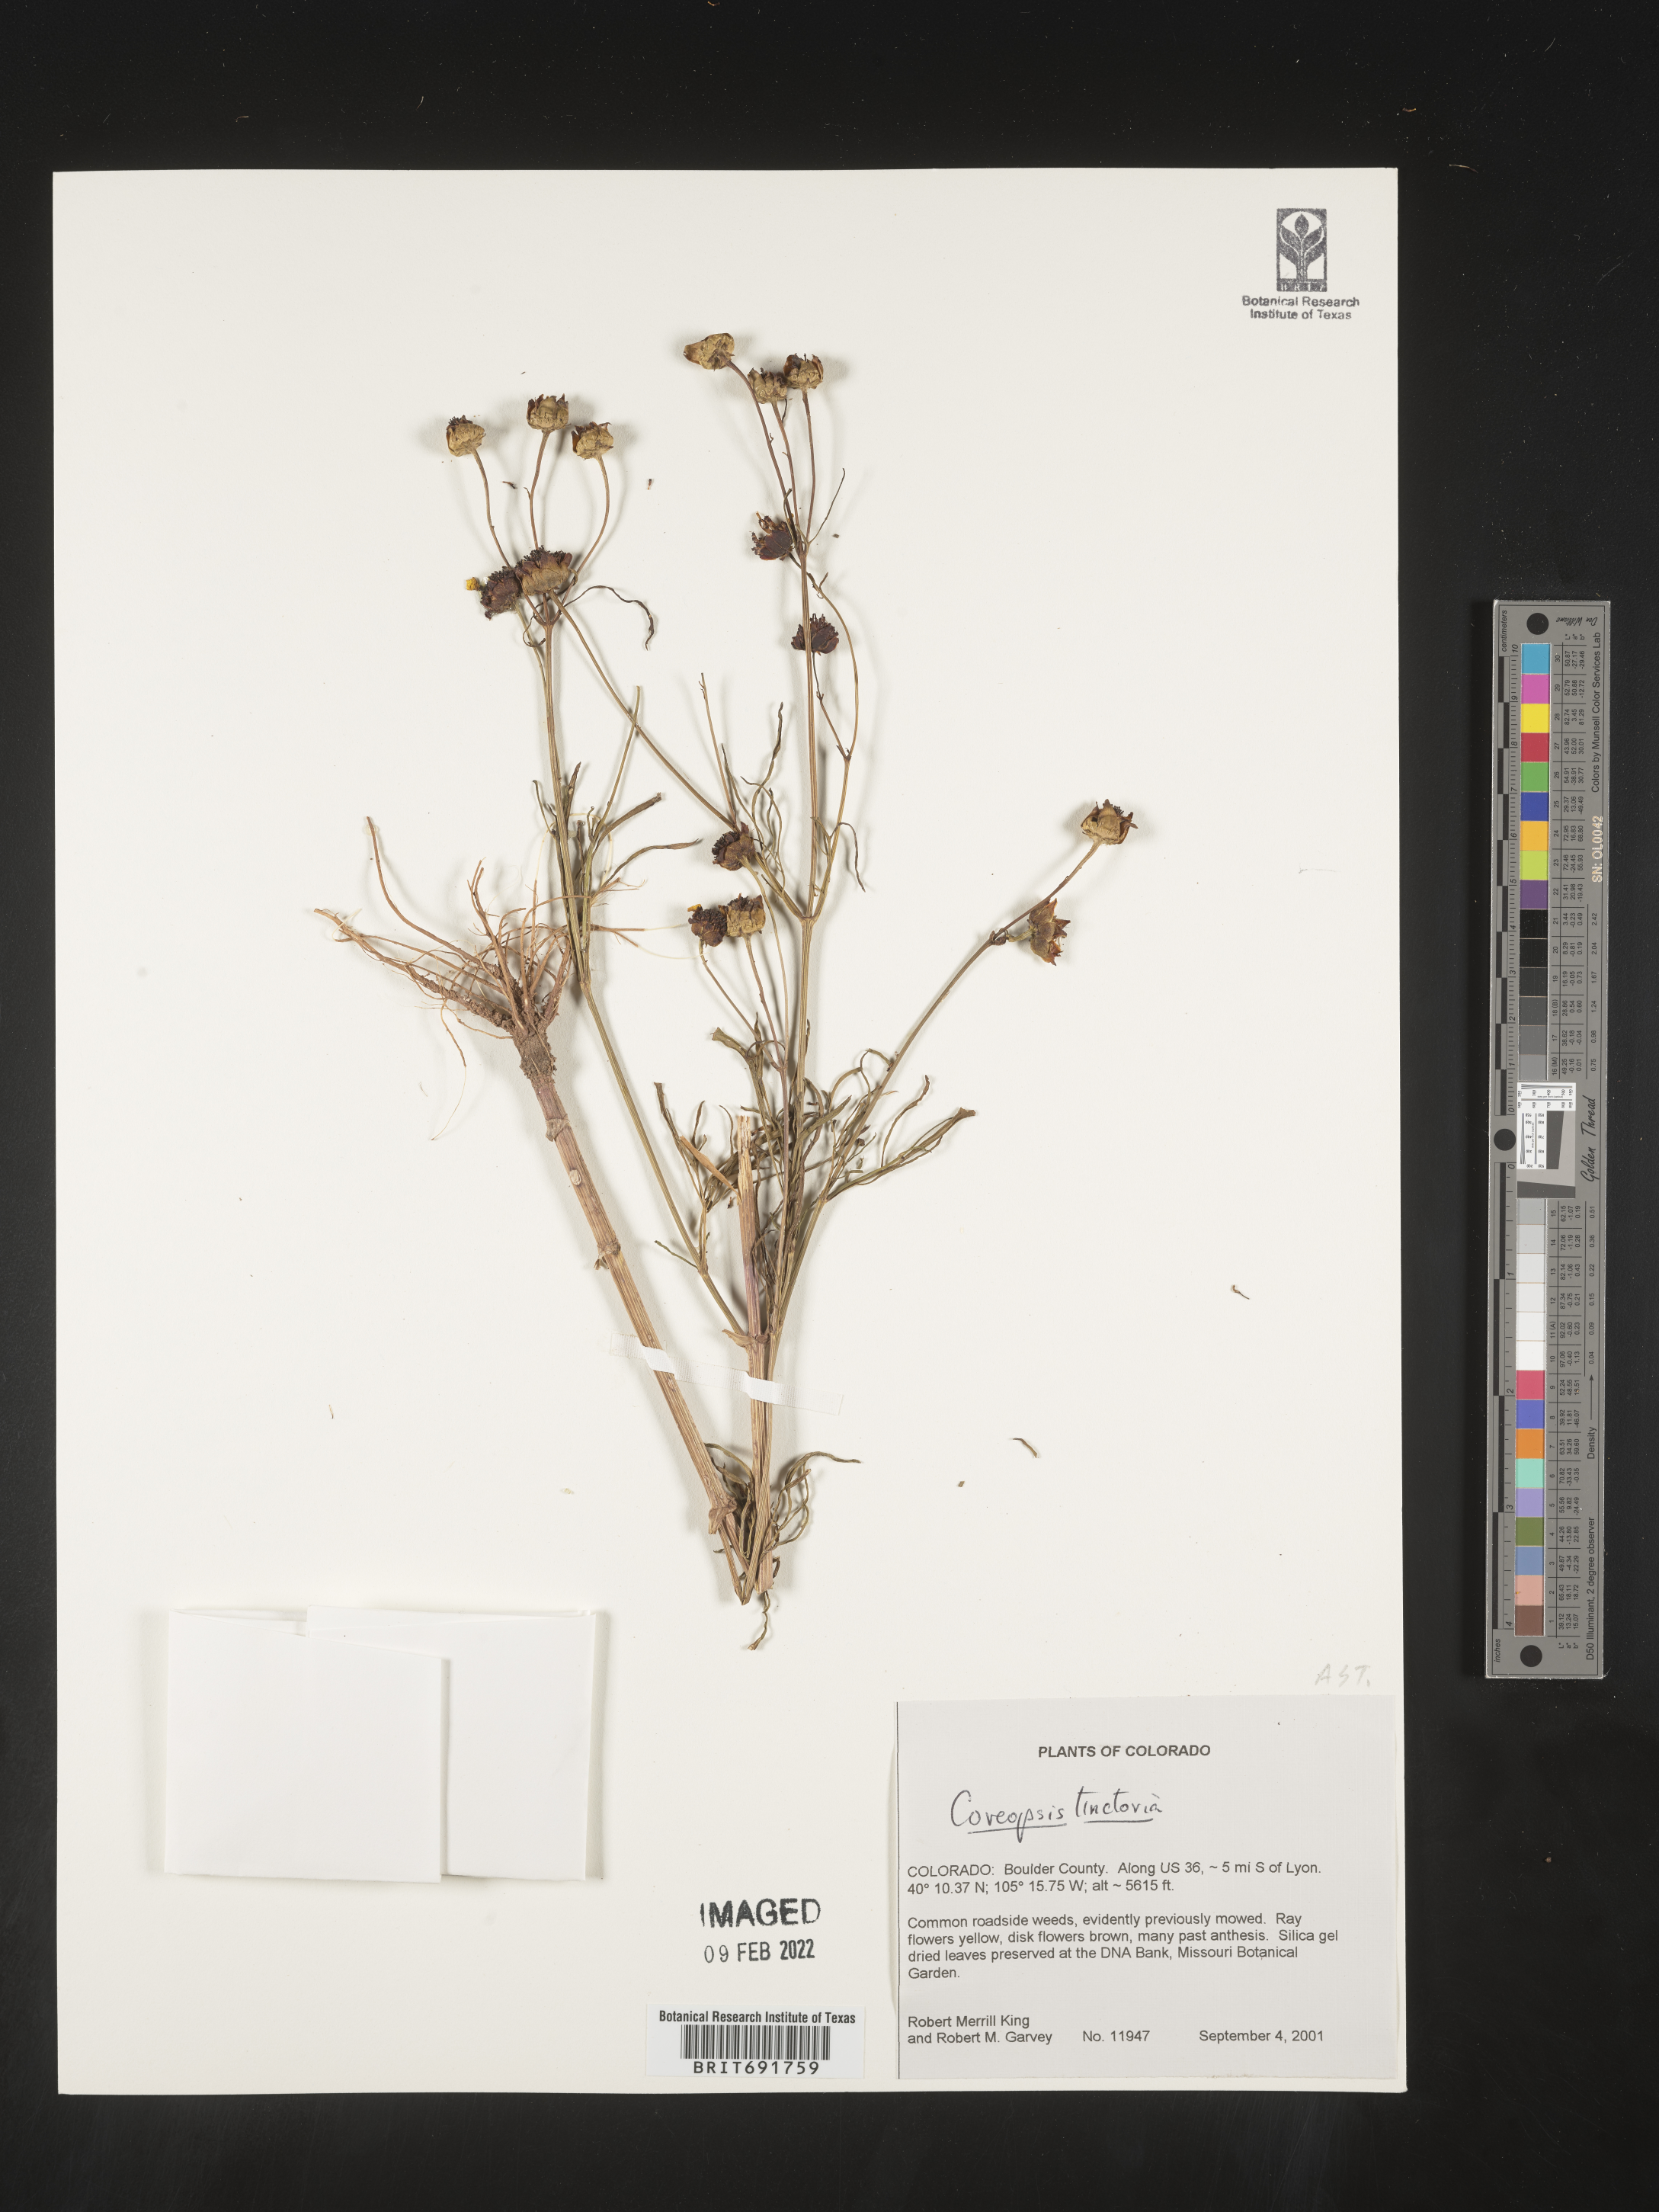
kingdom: Plantae
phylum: Tracheophyta
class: Magnoliopsida
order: Asterales
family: Asteraceae
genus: Coreopsis
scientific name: Coreopsis tinctoria
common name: Garden tickseed
